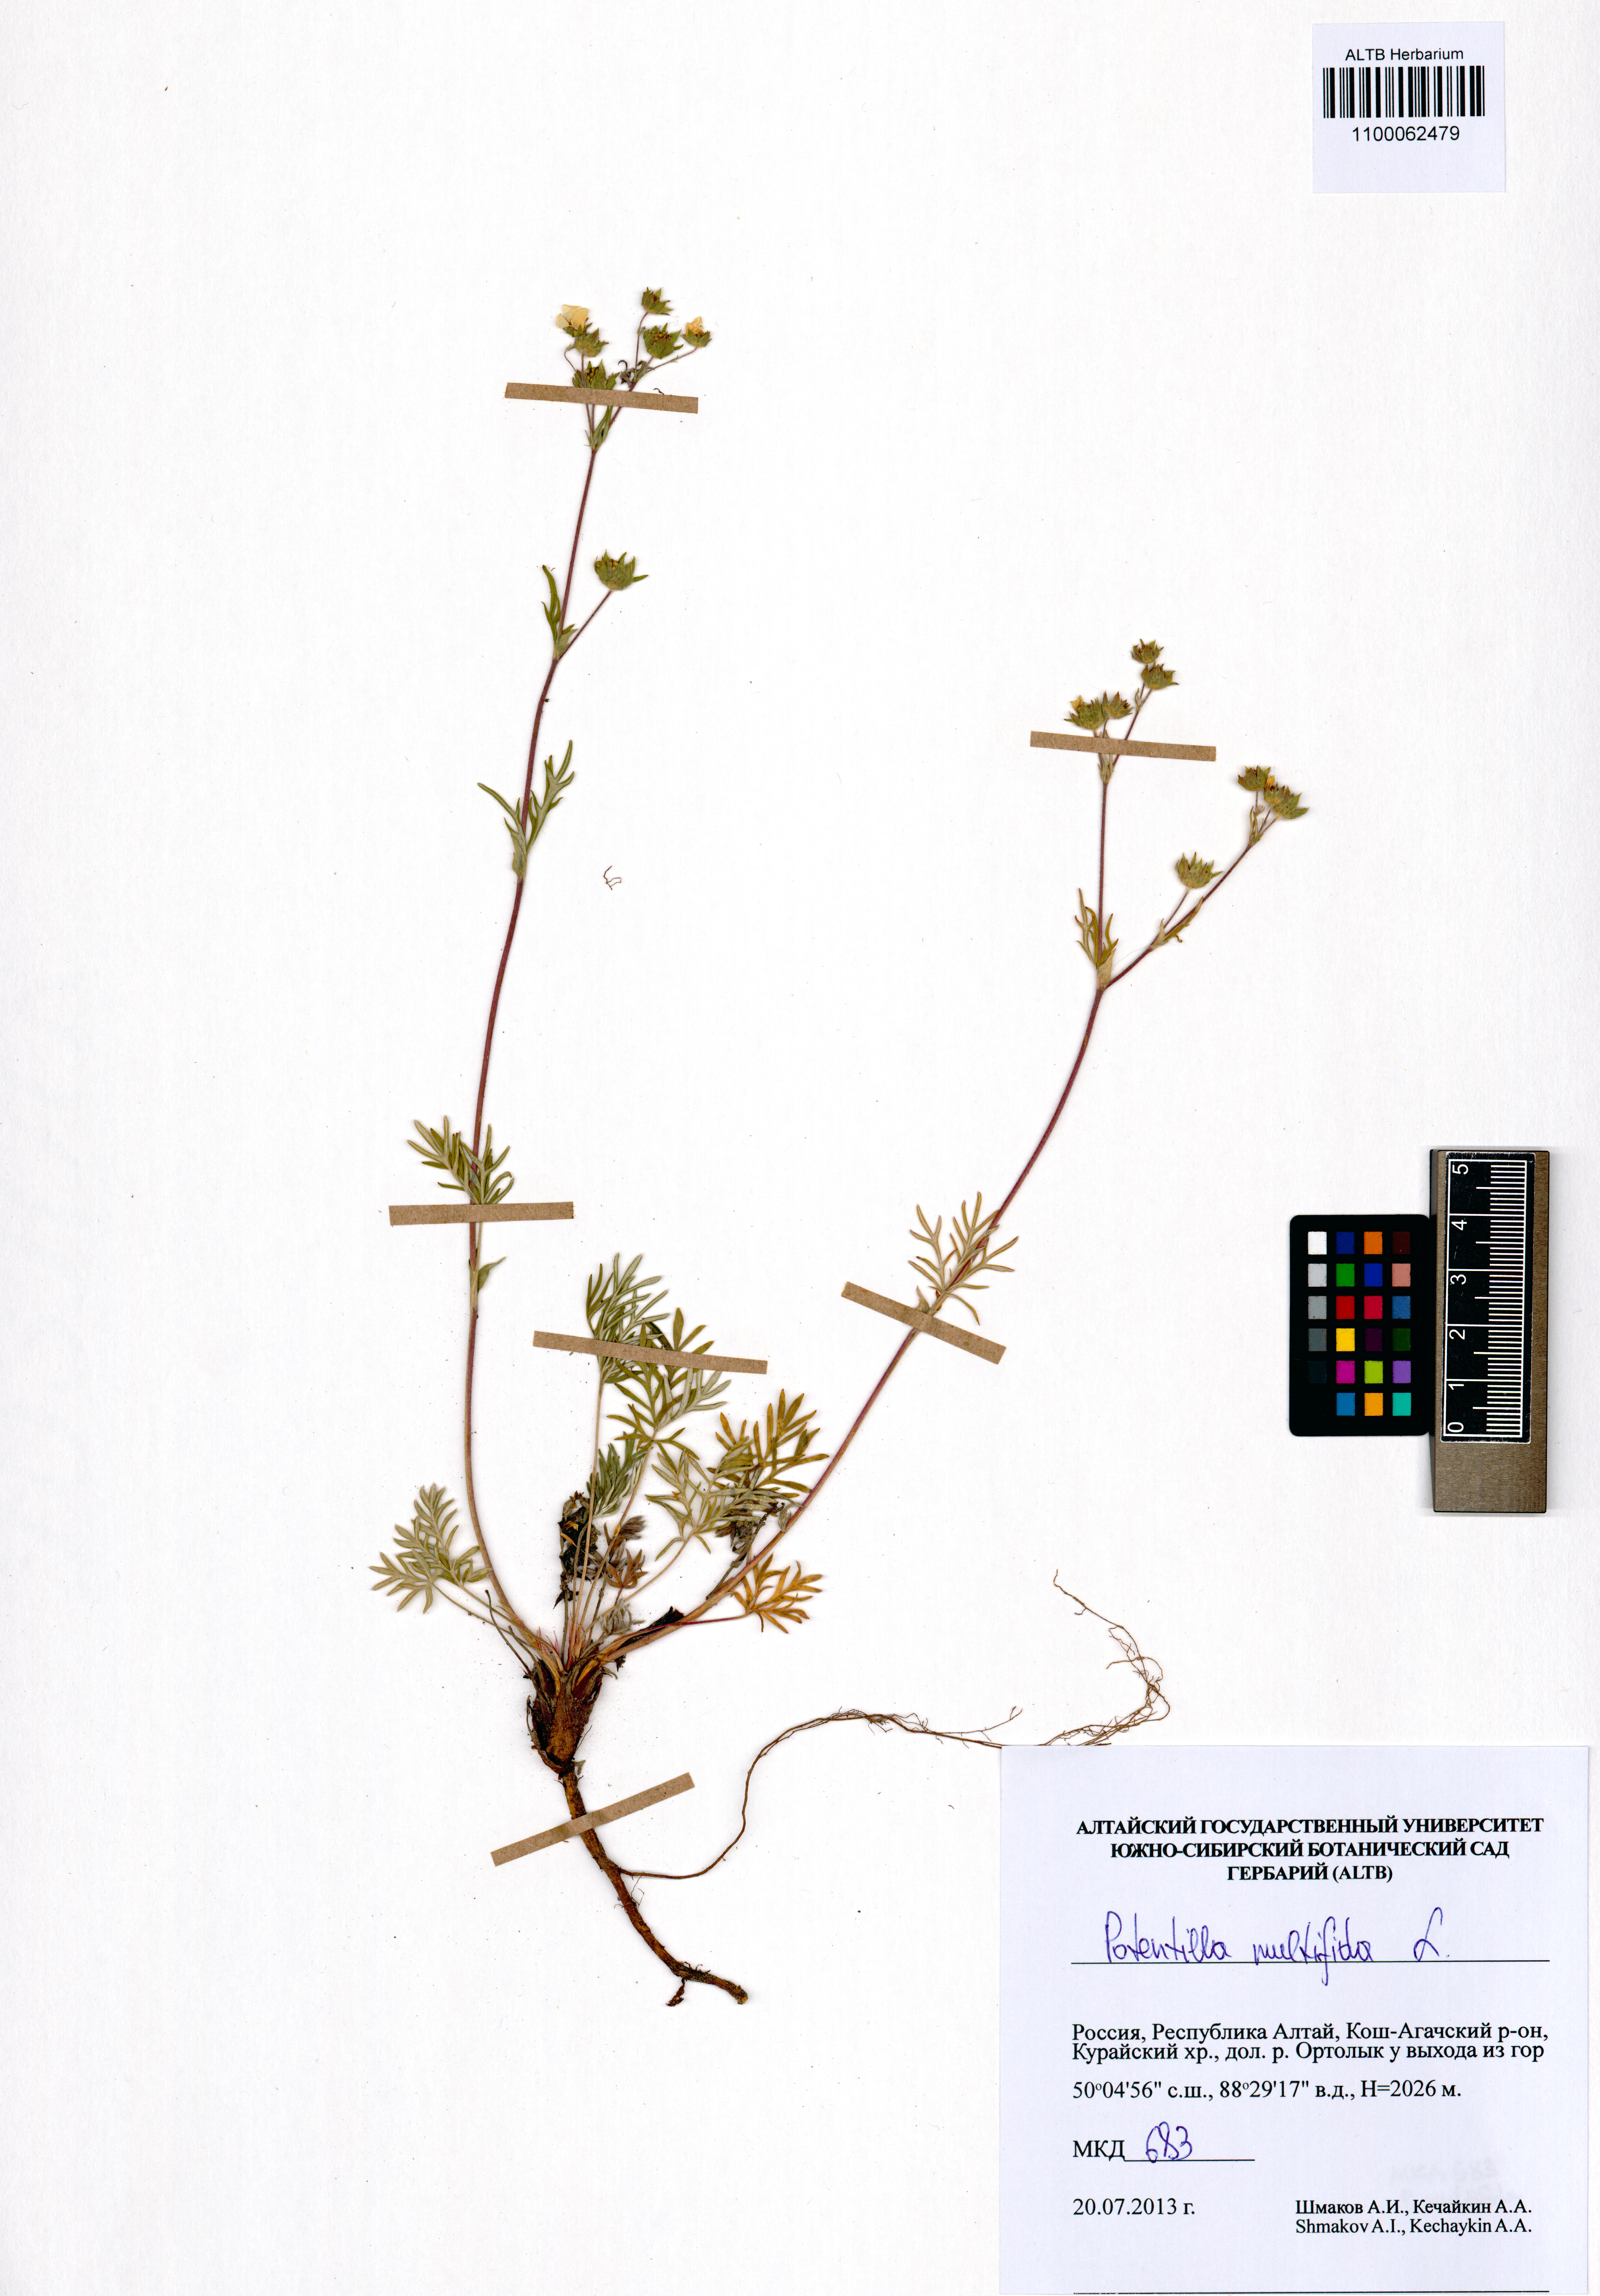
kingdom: Plantae
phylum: Tracheophyta
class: Magnoliopsida
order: Rosales
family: Rosaceae
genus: Potentilla
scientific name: Potentilla multifida
